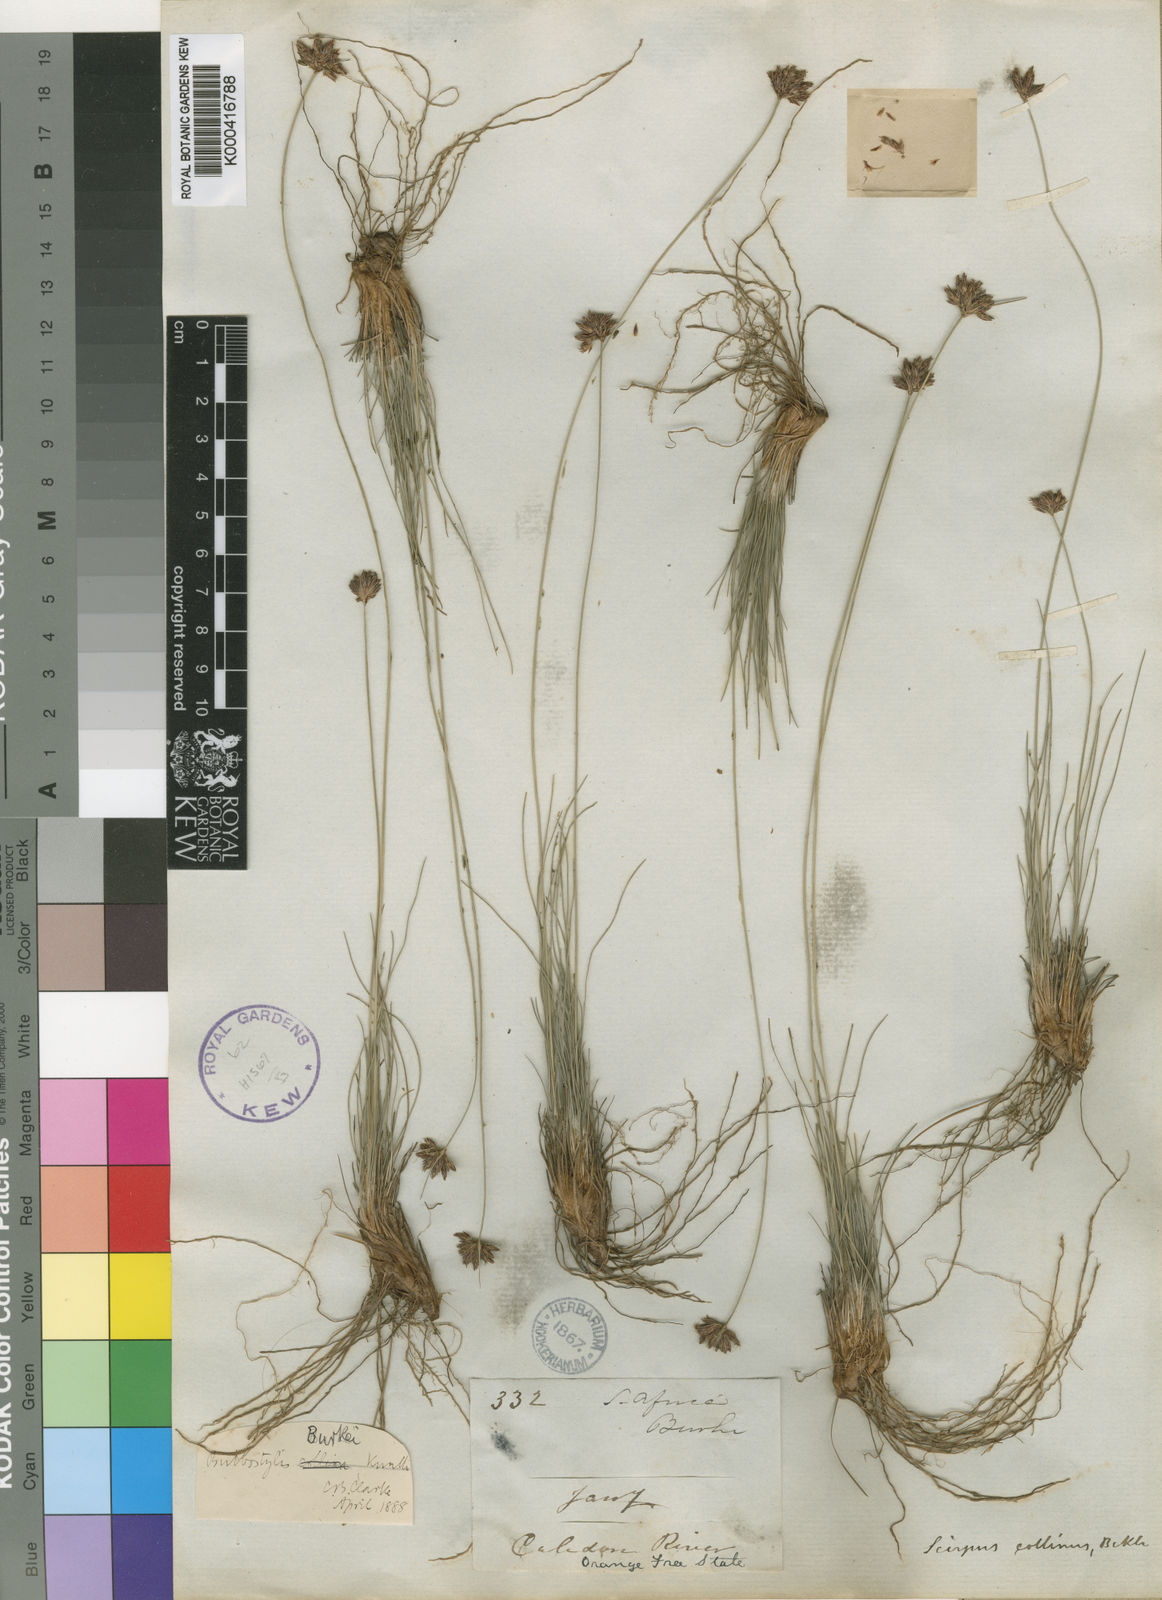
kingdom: Plantae
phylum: Tracheophyta
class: Liliopsida
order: Poales
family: Cyperaceae
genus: Bulbostylis
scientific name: Bulbostylis contexta
